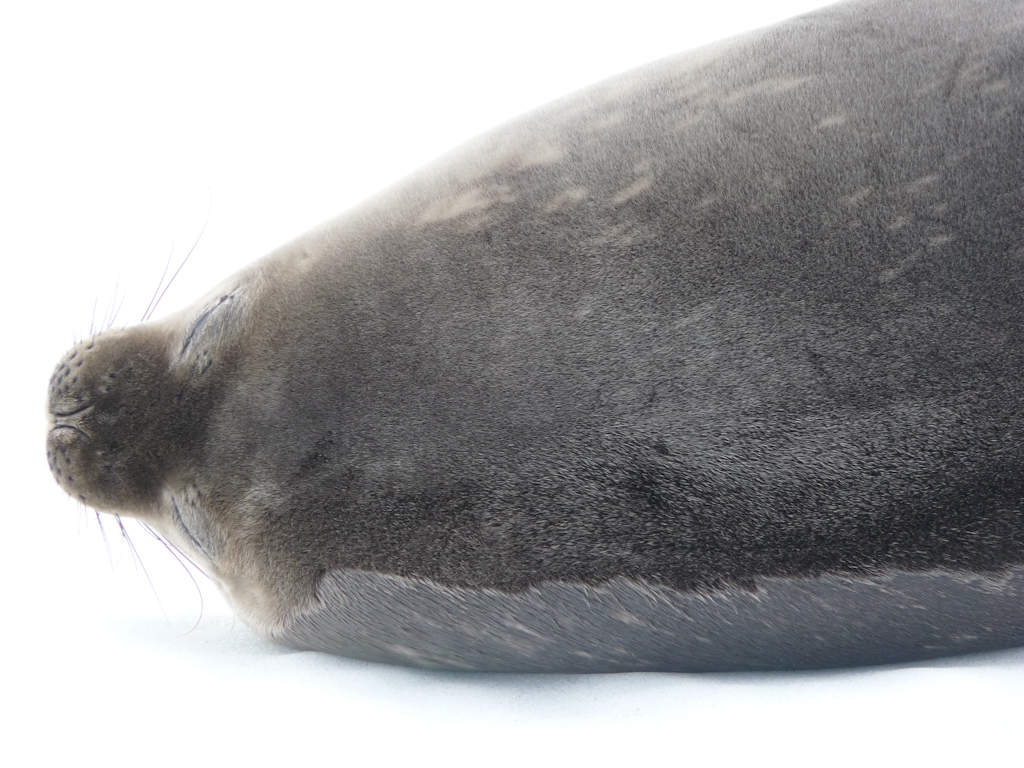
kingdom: Animalia
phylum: Chordata
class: Mammalia
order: Carnivora
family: Phocidae
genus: Leptonychotes
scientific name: Leptonychotes weddellii
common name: Weddell Seal
